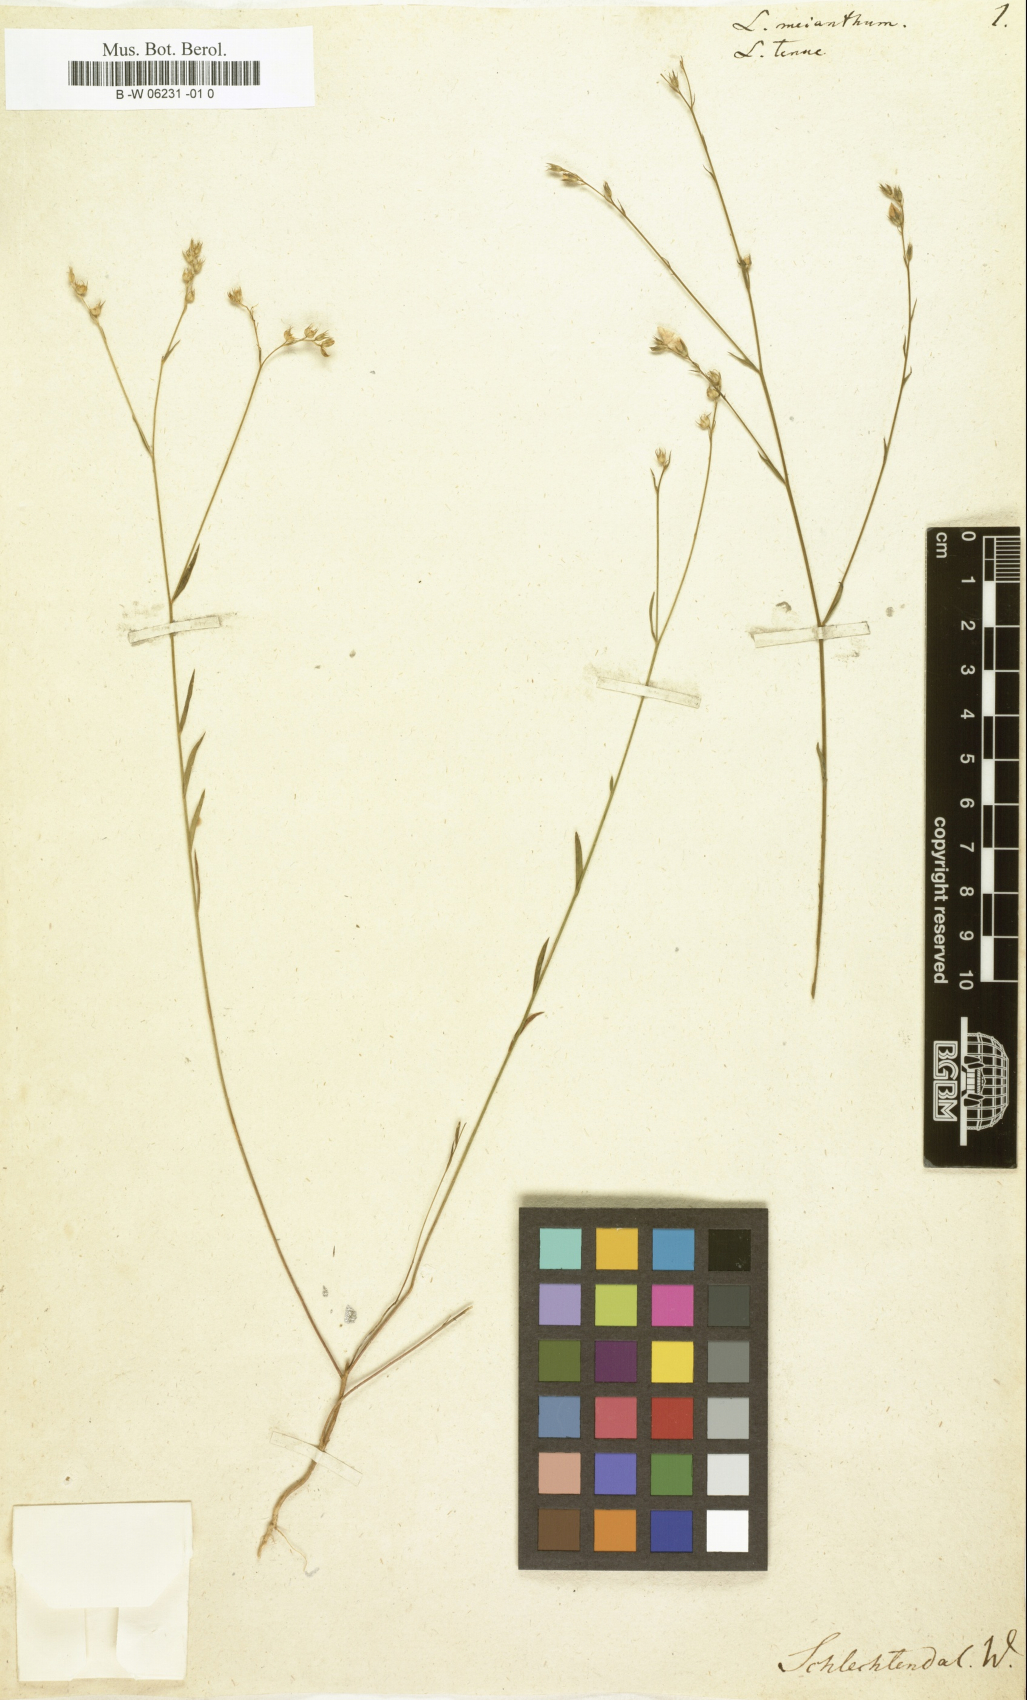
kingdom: Plantae
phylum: Tracheophyta
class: Magnoliopsida
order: Malpighiales
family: Linaceae
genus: Linum
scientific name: Linum
